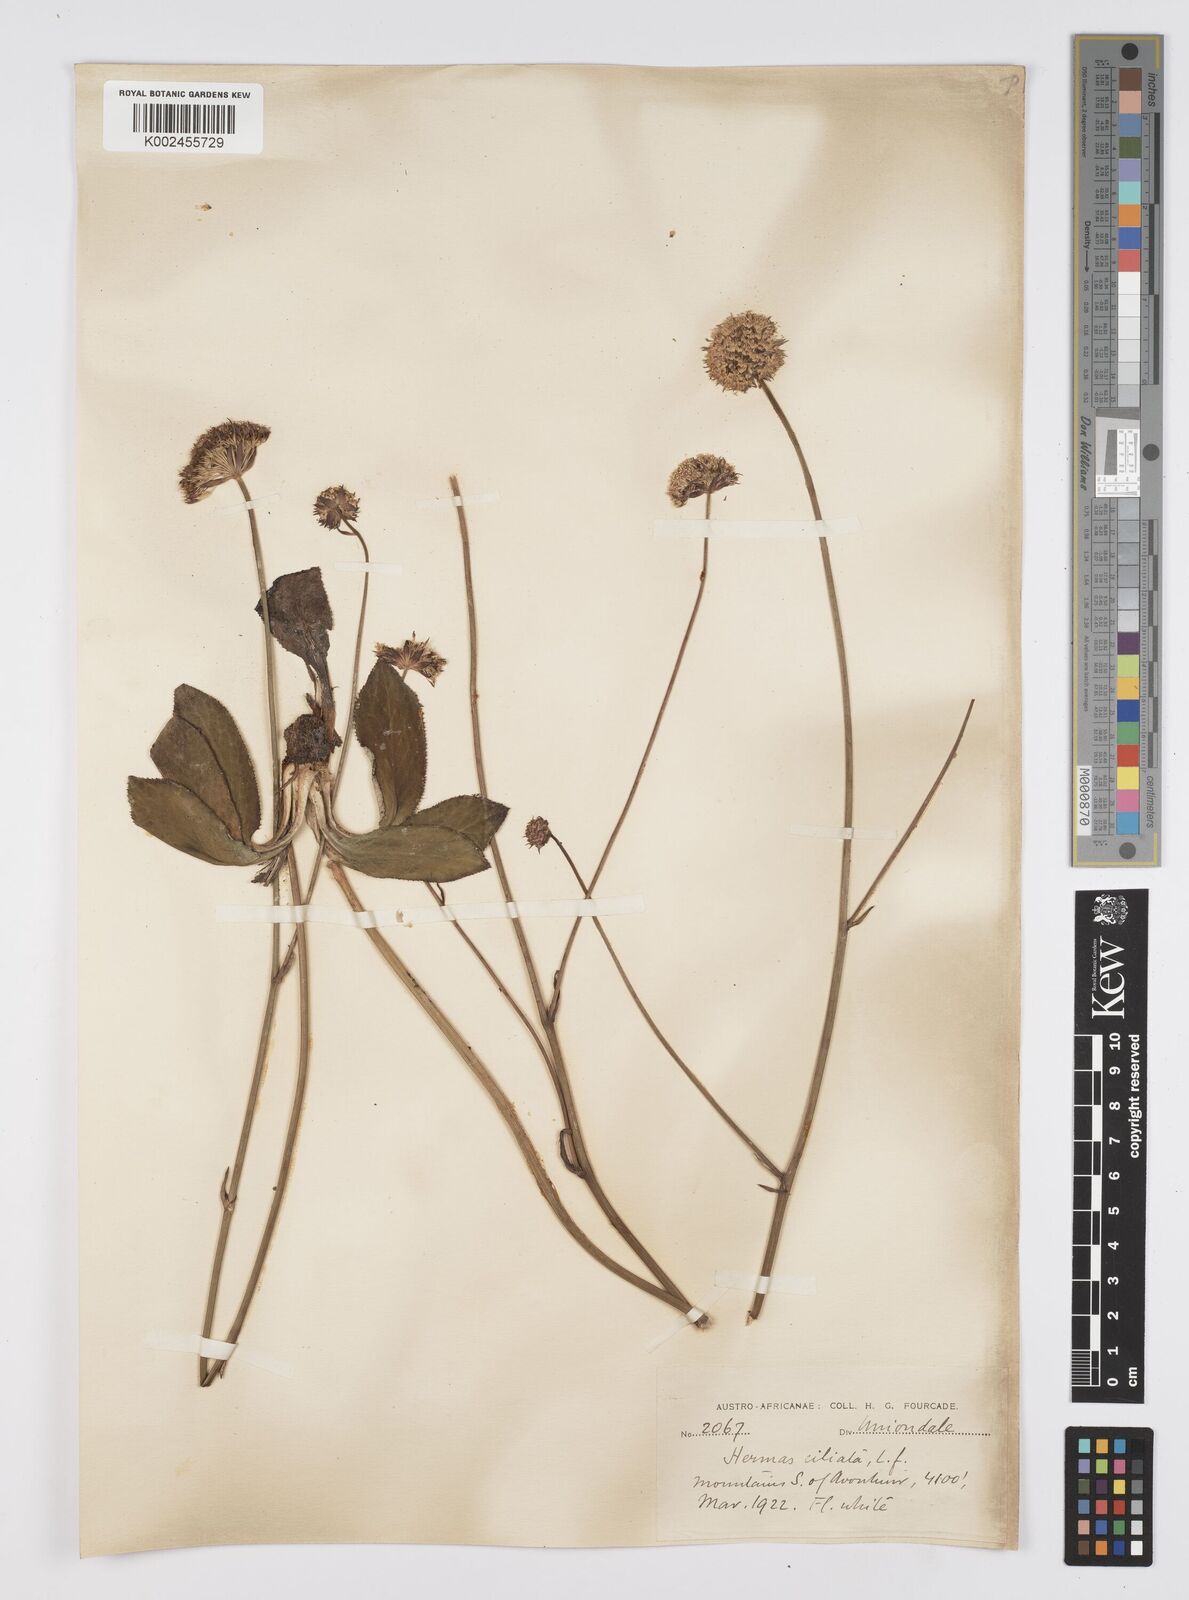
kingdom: Plantae
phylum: Tracheophyta
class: Magnoliopsida
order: Apiales
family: Apiaceae
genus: Hermas
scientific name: Hermas ciliata
